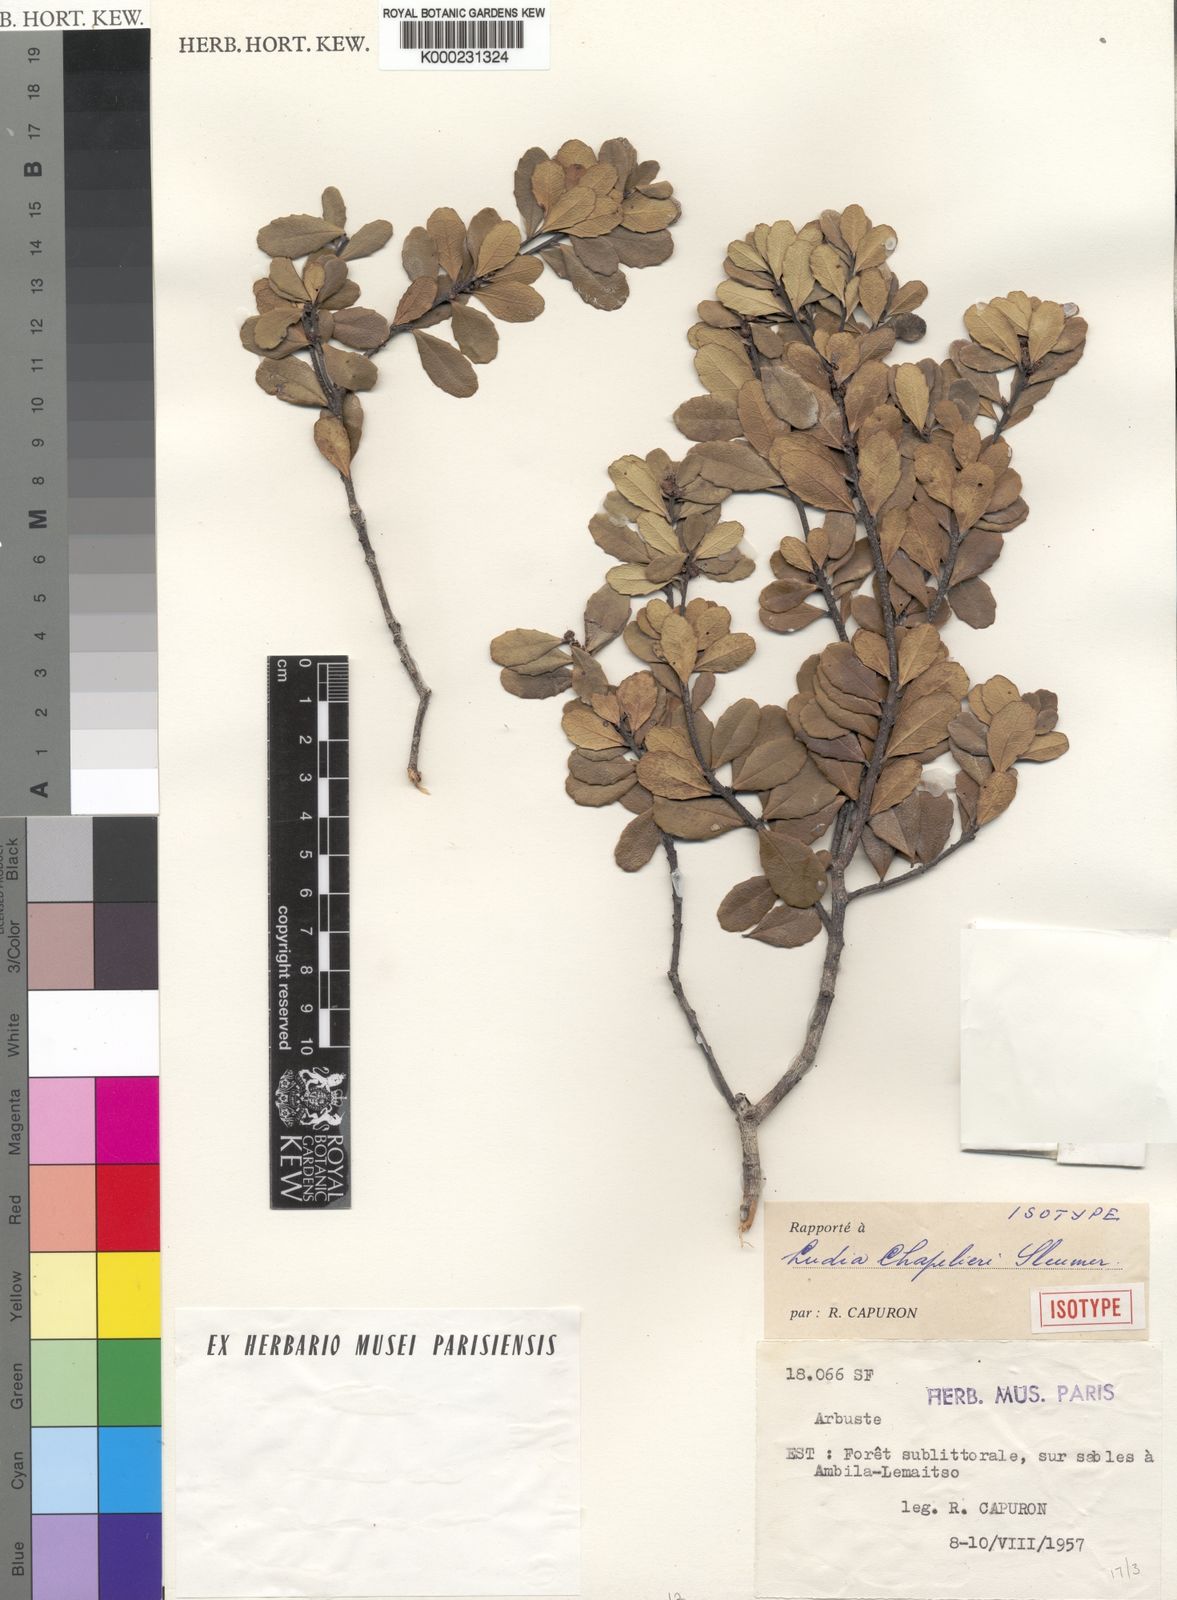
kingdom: Plantae
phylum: Tracheophyta
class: Magnoliopsida
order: Malpighiales
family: Salicaceae
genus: Ludia
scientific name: Ludia chapelieri
